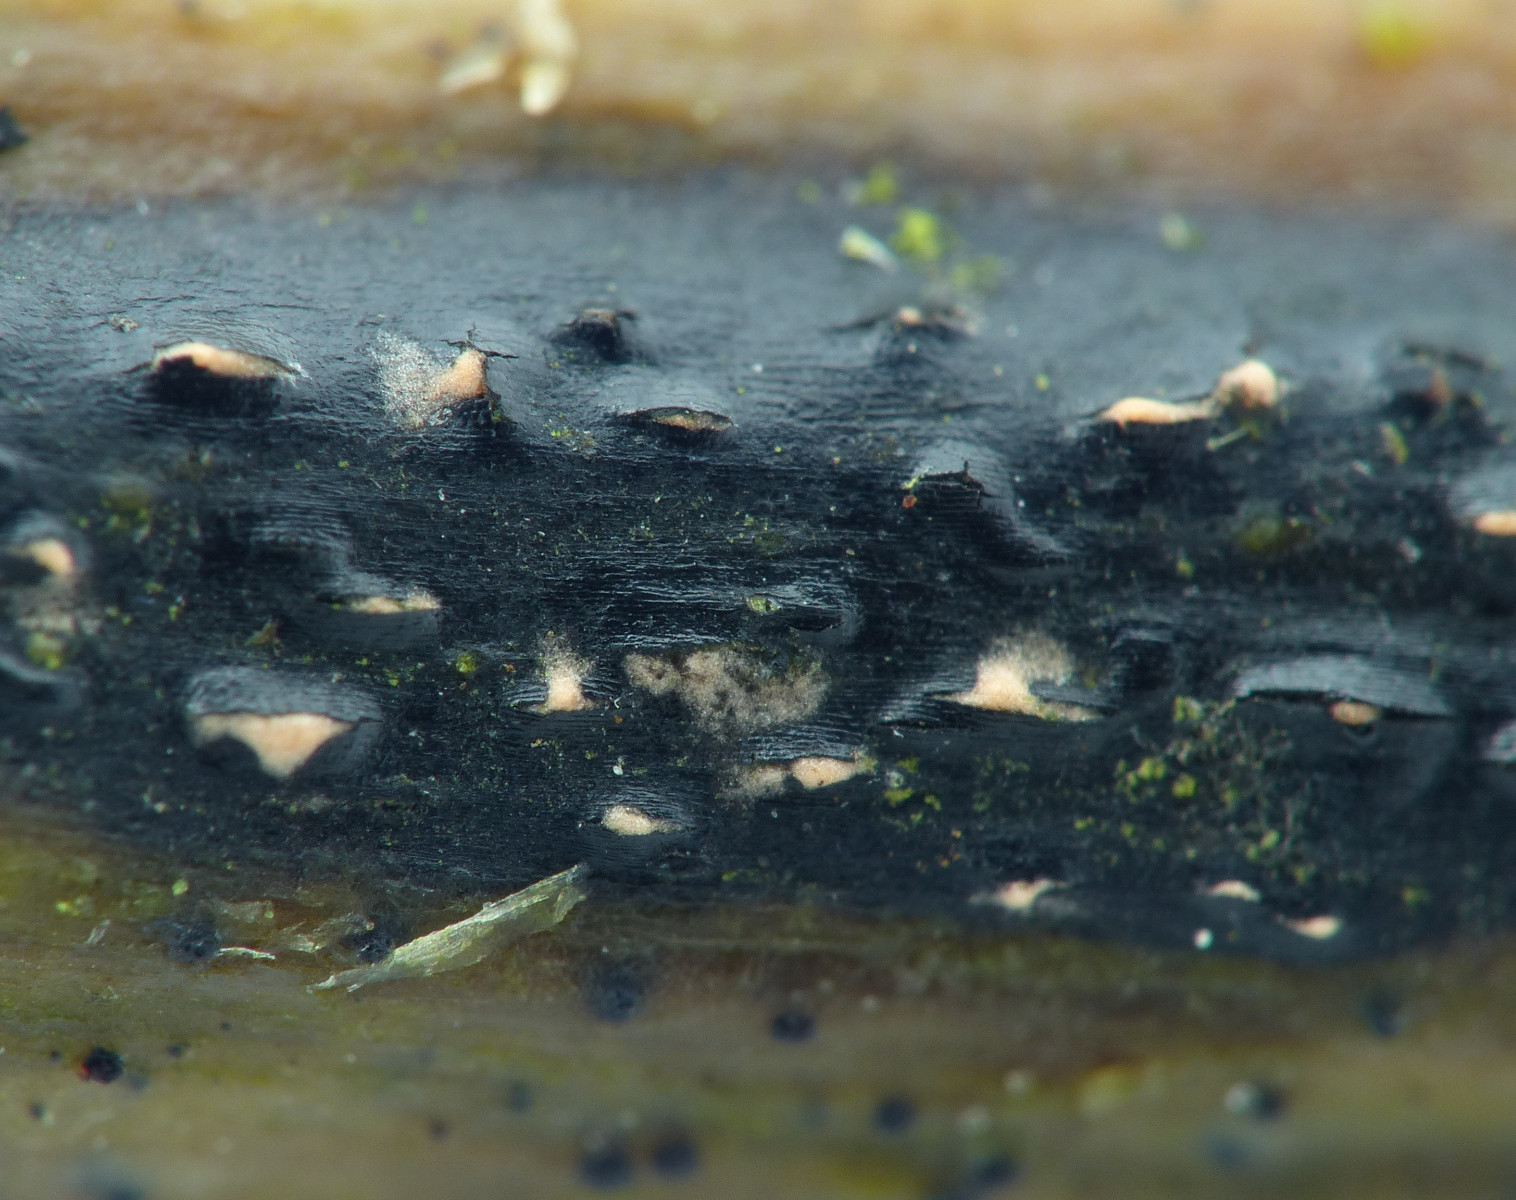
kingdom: Fungi
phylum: Ascomycota
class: Sordariomycetes
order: Diaporthales
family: Diaporthaceae
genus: Diaporthopsis
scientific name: Diaporthopsis urticae
